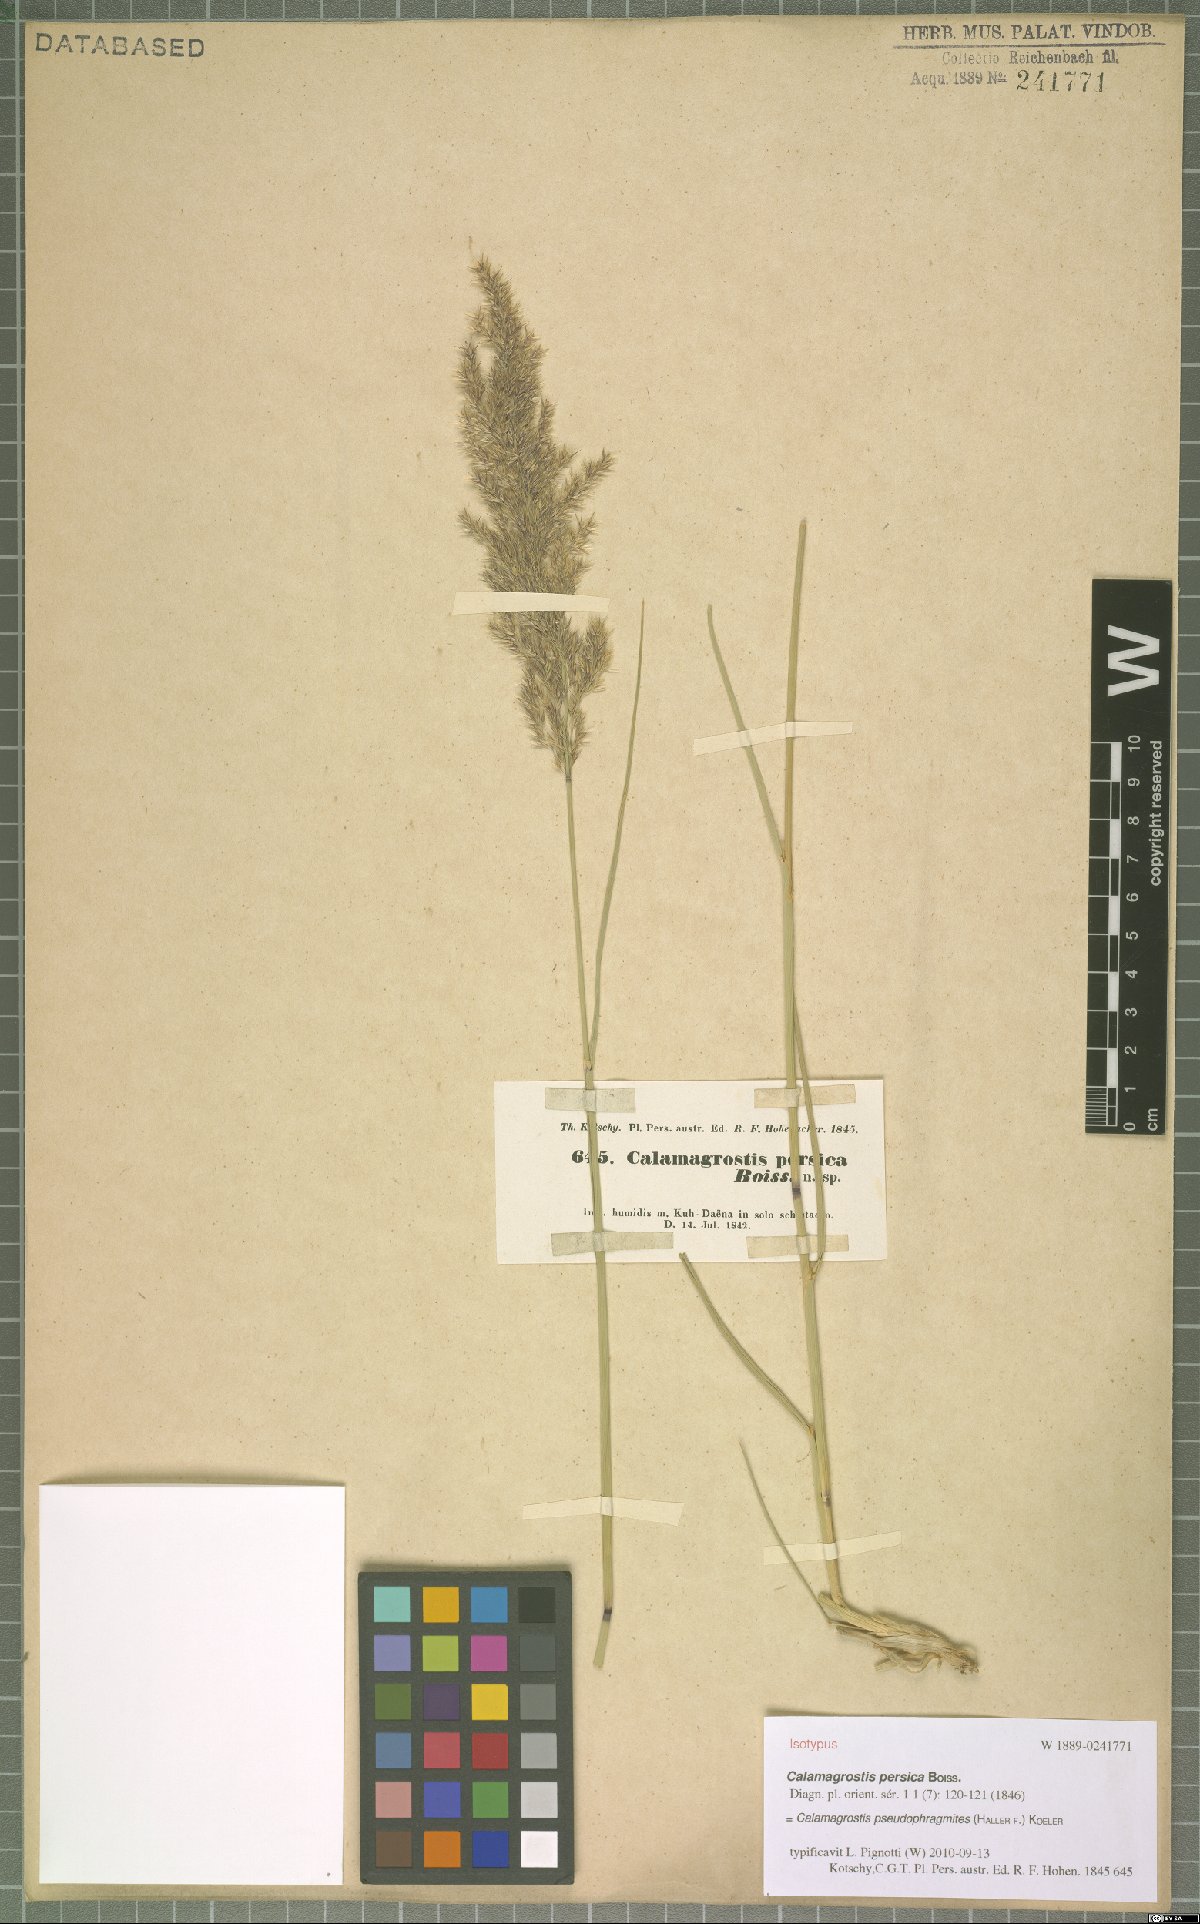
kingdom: Plantae
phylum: Tracheophyta
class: Liliopsida
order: Poales
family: Poaceae
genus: Calamagrostis
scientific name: Calamagrostis pseudophragmites
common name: Coastal small-reed
